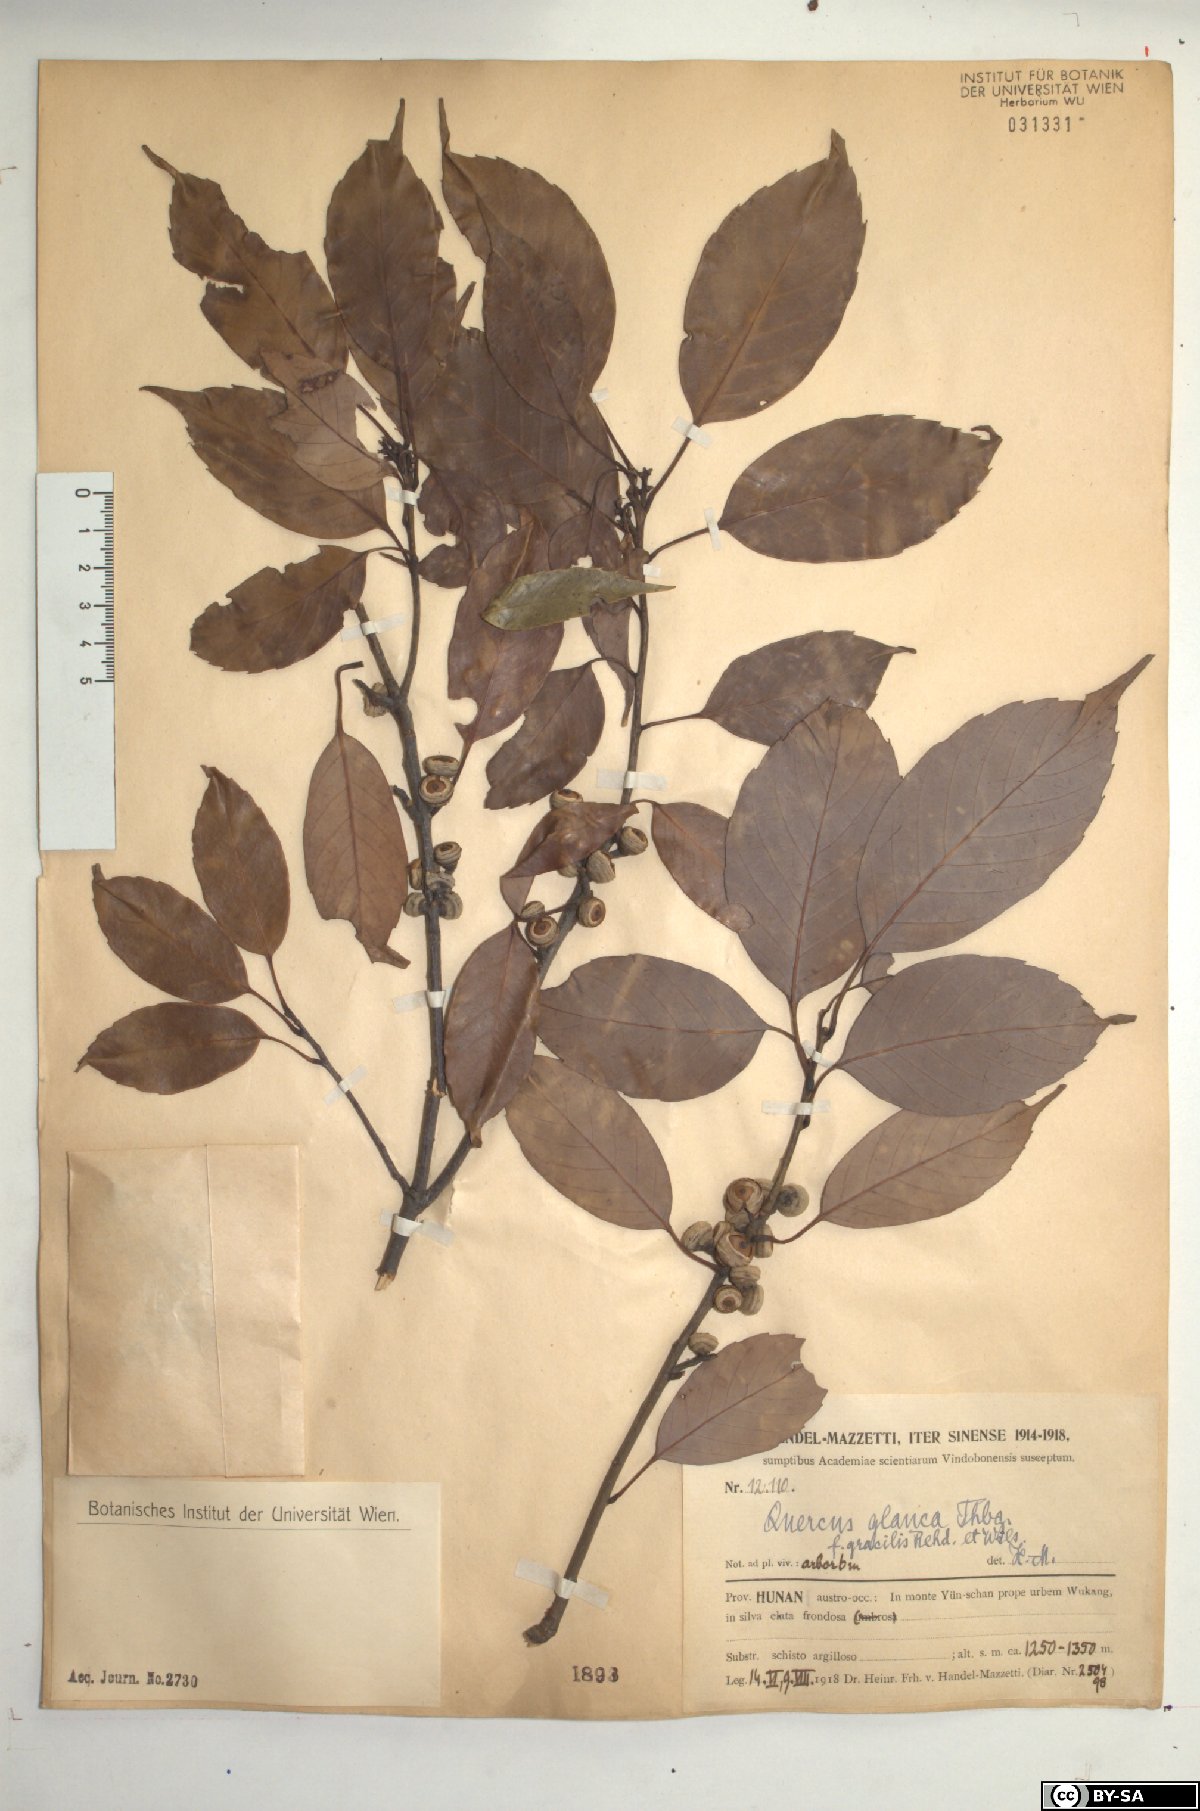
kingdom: Plantae
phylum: Tracheophyta
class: Magnoliopsida
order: Fagales
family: Fagaceae
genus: Quercus
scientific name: Quercus glauca
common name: Ring-cup oak
